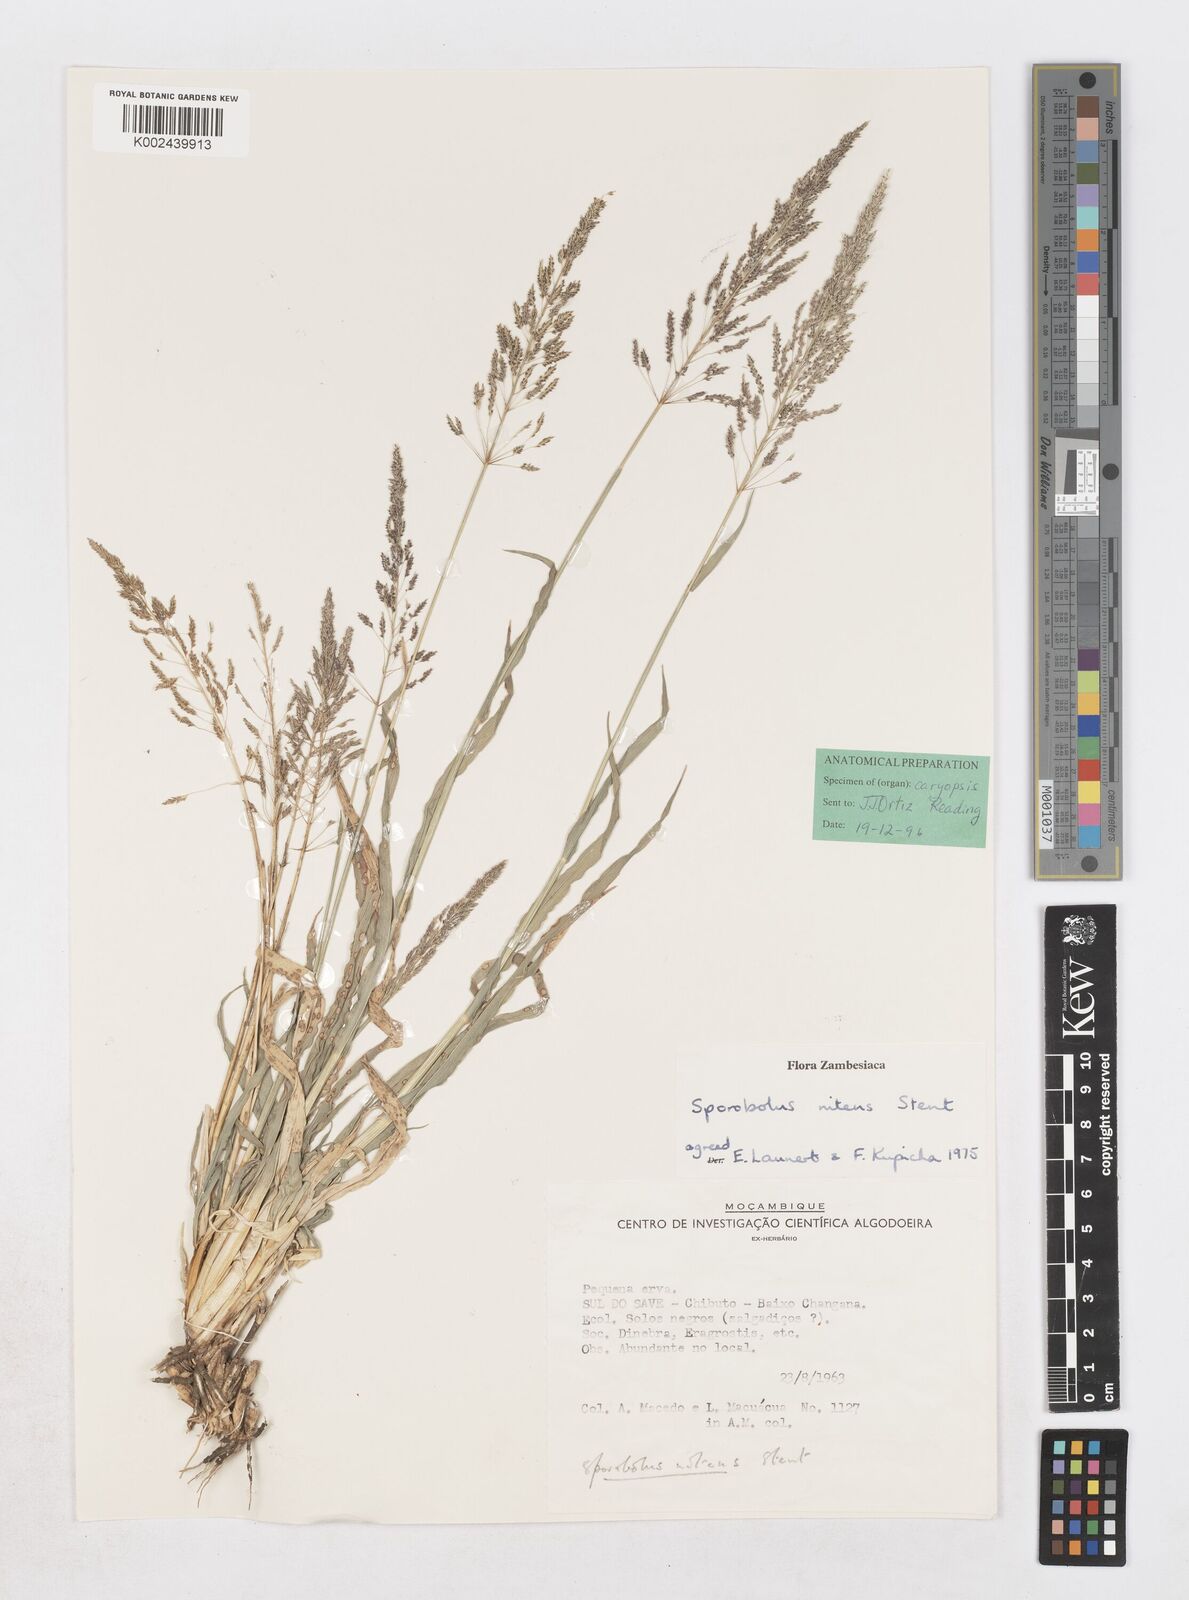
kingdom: Plantae
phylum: Tracheophyta
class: Liliopsida
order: Poales
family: Poaceae
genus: Sporobolus
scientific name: Sporobolus nitens
